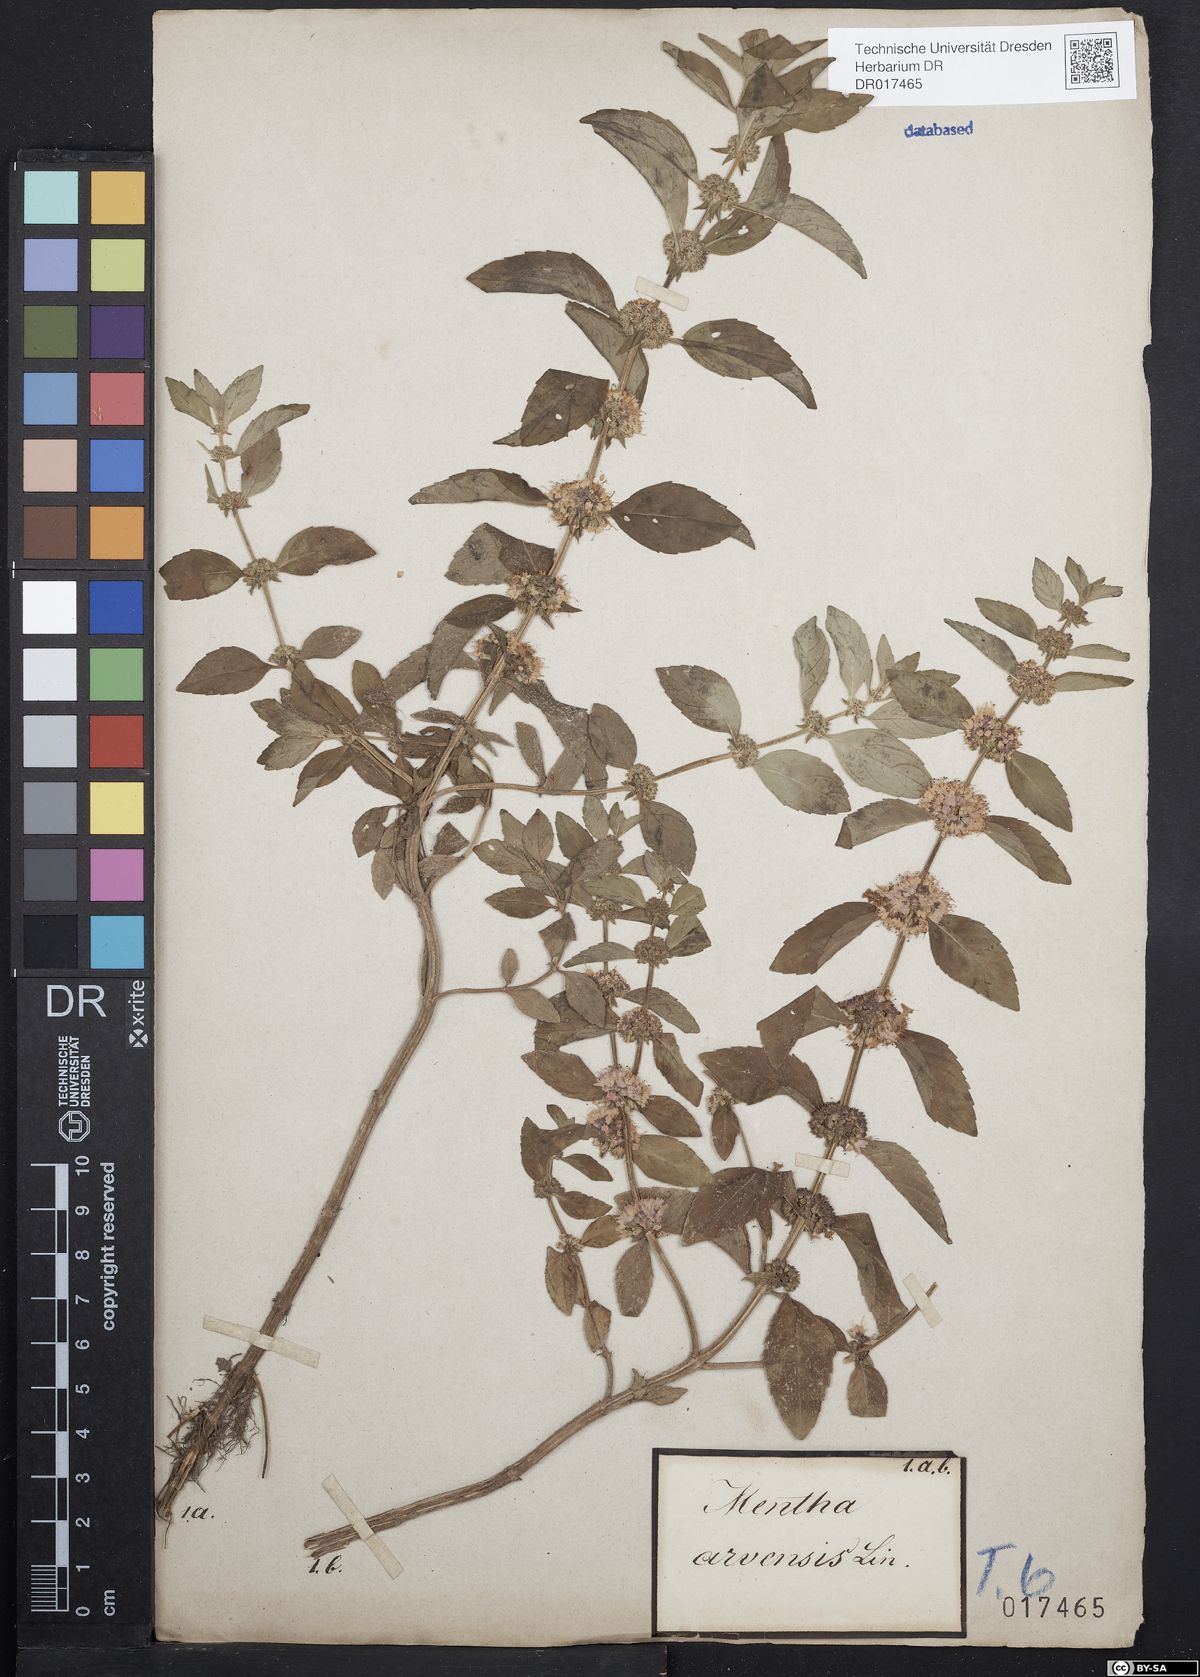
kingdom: Plantae
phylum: Tracheophyta
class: Magnoliopsida
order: Lamiales
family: Lamiaceae
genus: Mentha
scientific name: Mentha arvensis
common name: Corn mint
